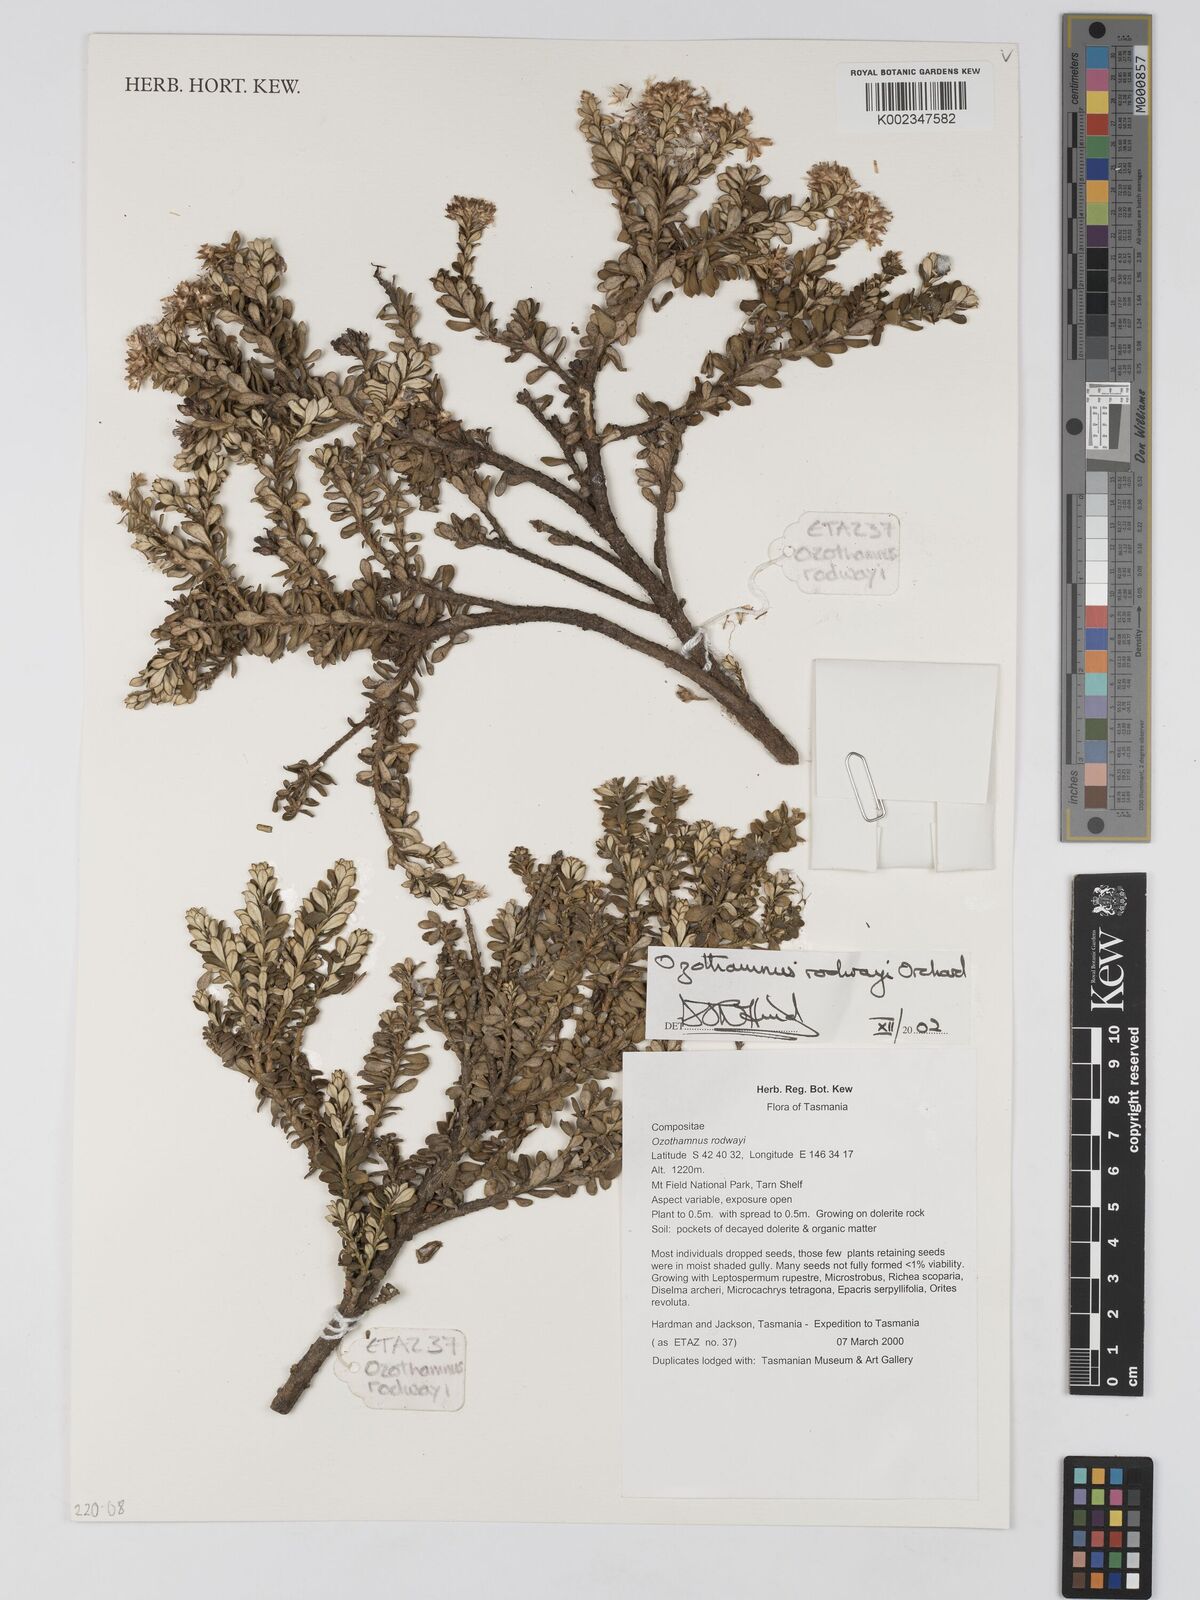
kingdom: Plantae
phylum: Tracheophyta
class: Magnoliopsida
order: Asterales
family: Asteraceae
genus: Ozothamnus
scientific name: Ozothamnus rodwayi
